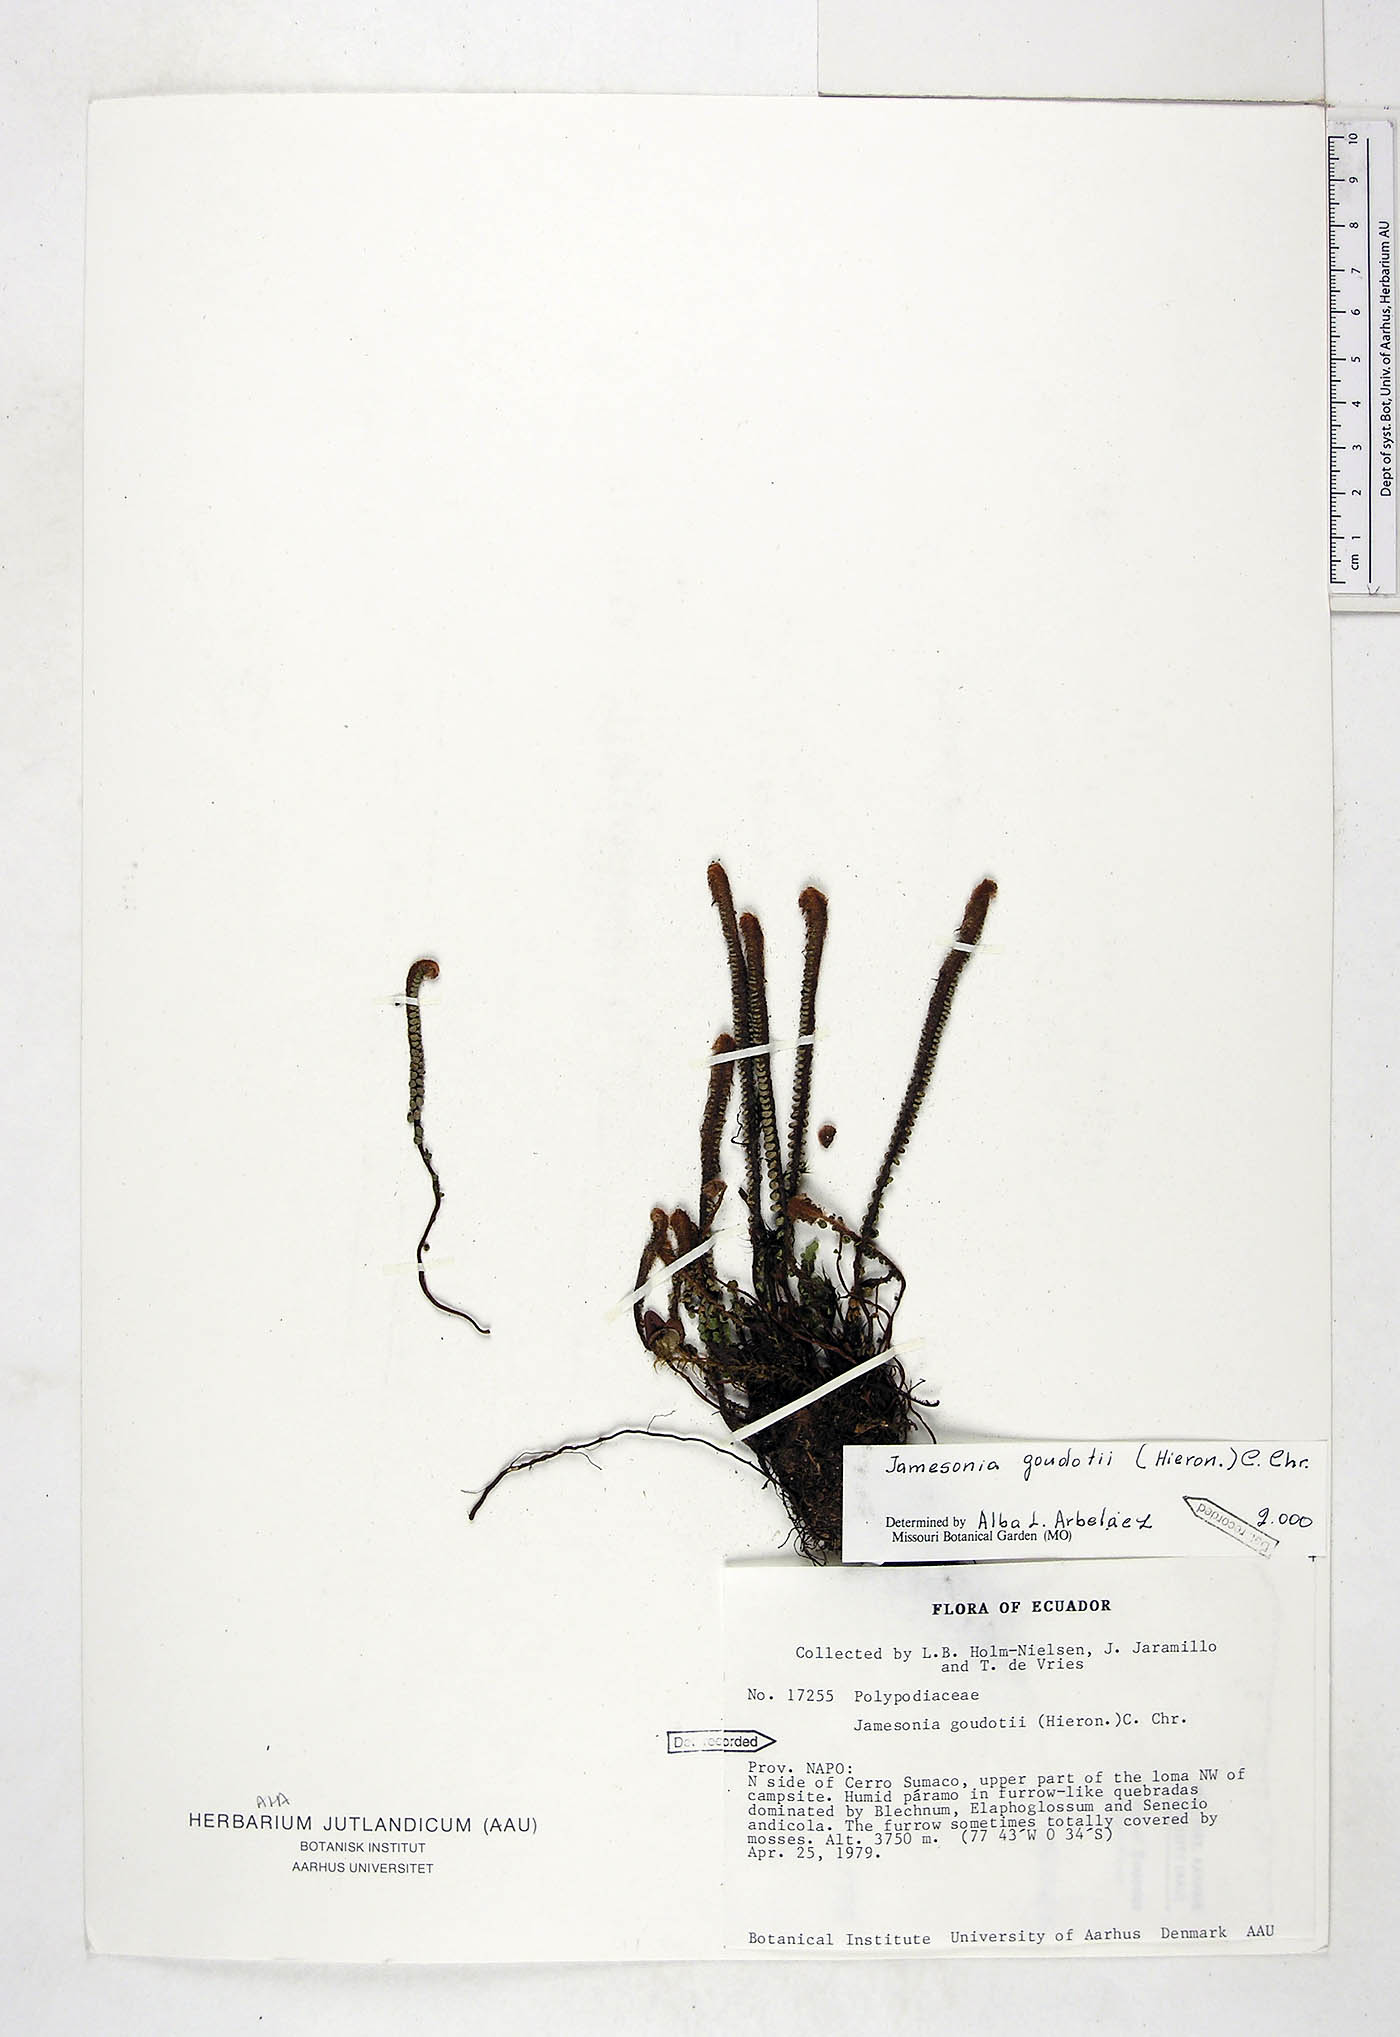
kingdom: Plantae
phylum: Tracheophyta
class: Polypodiopsida
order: Polypodiales
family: Pteridaceae
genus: Jamesonia
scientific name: Jamesonia goudotii
